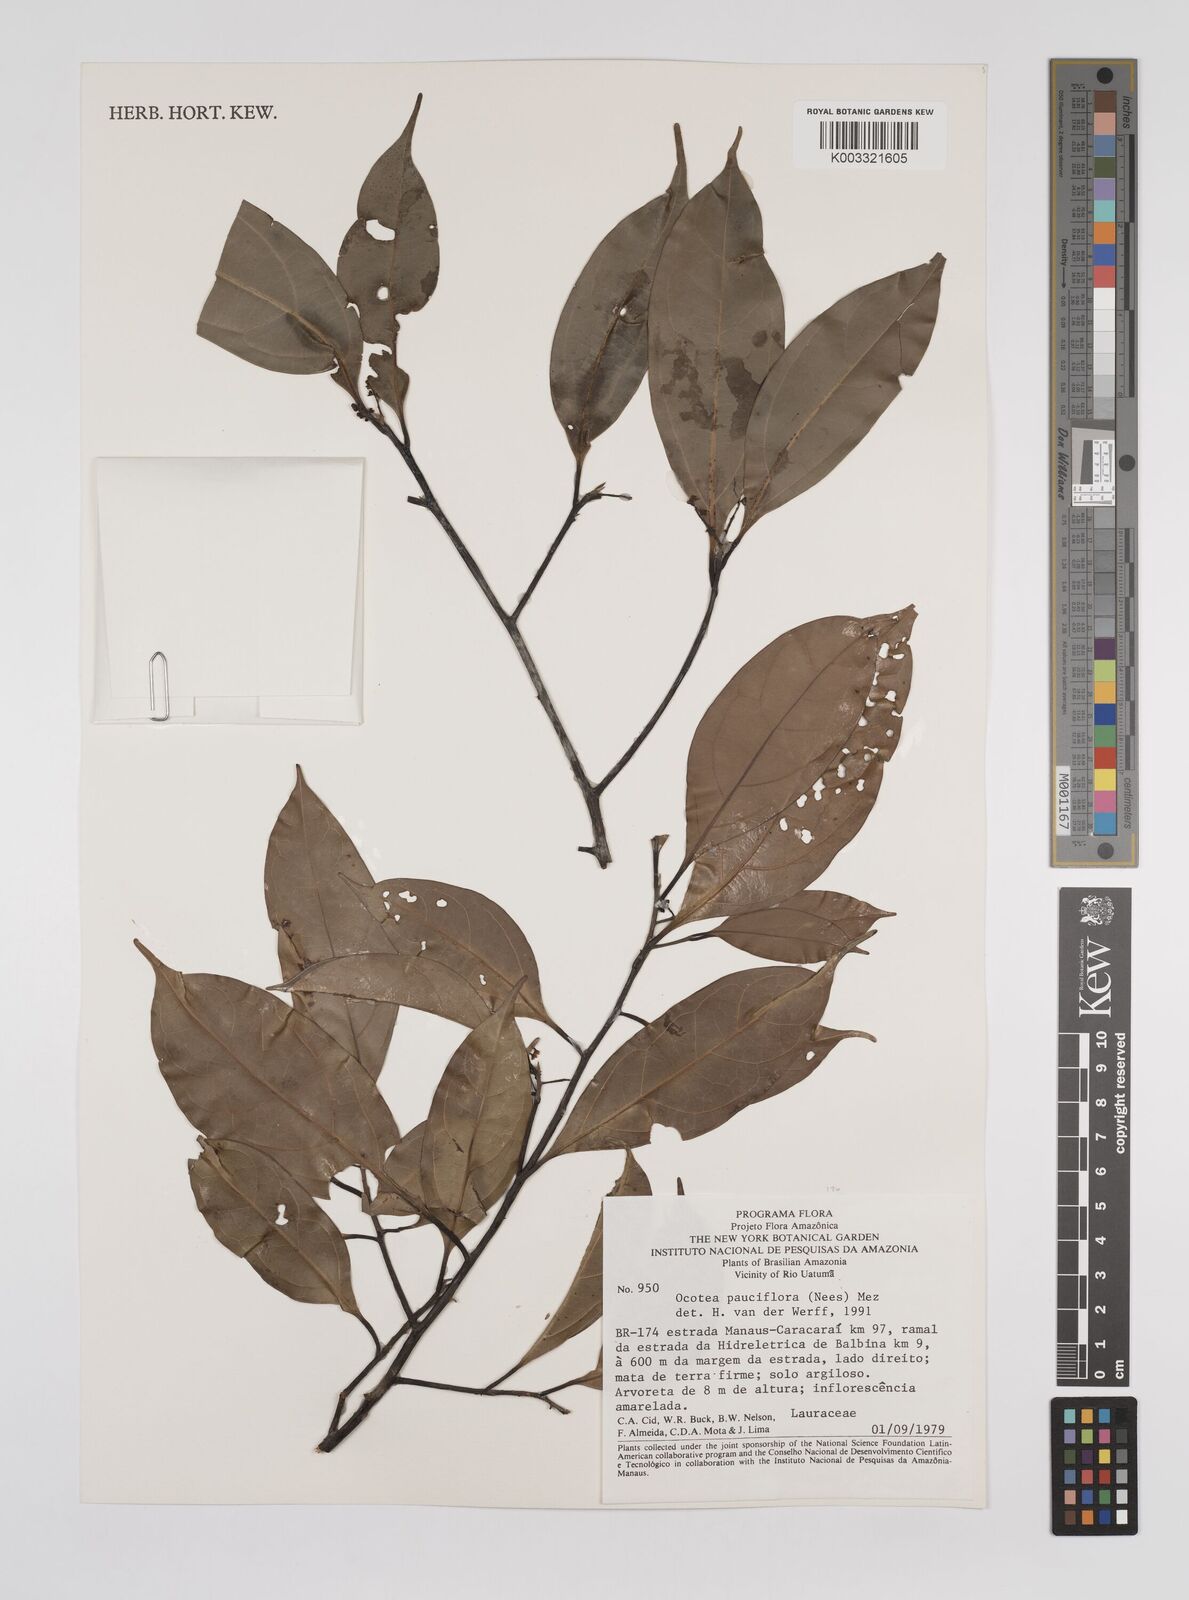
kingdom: Plantae
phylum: Tracheophyta
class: Magnoliopsida
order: Laurales
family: Lauraceae
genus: Ocotea
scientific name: Ocotea pauciflora
